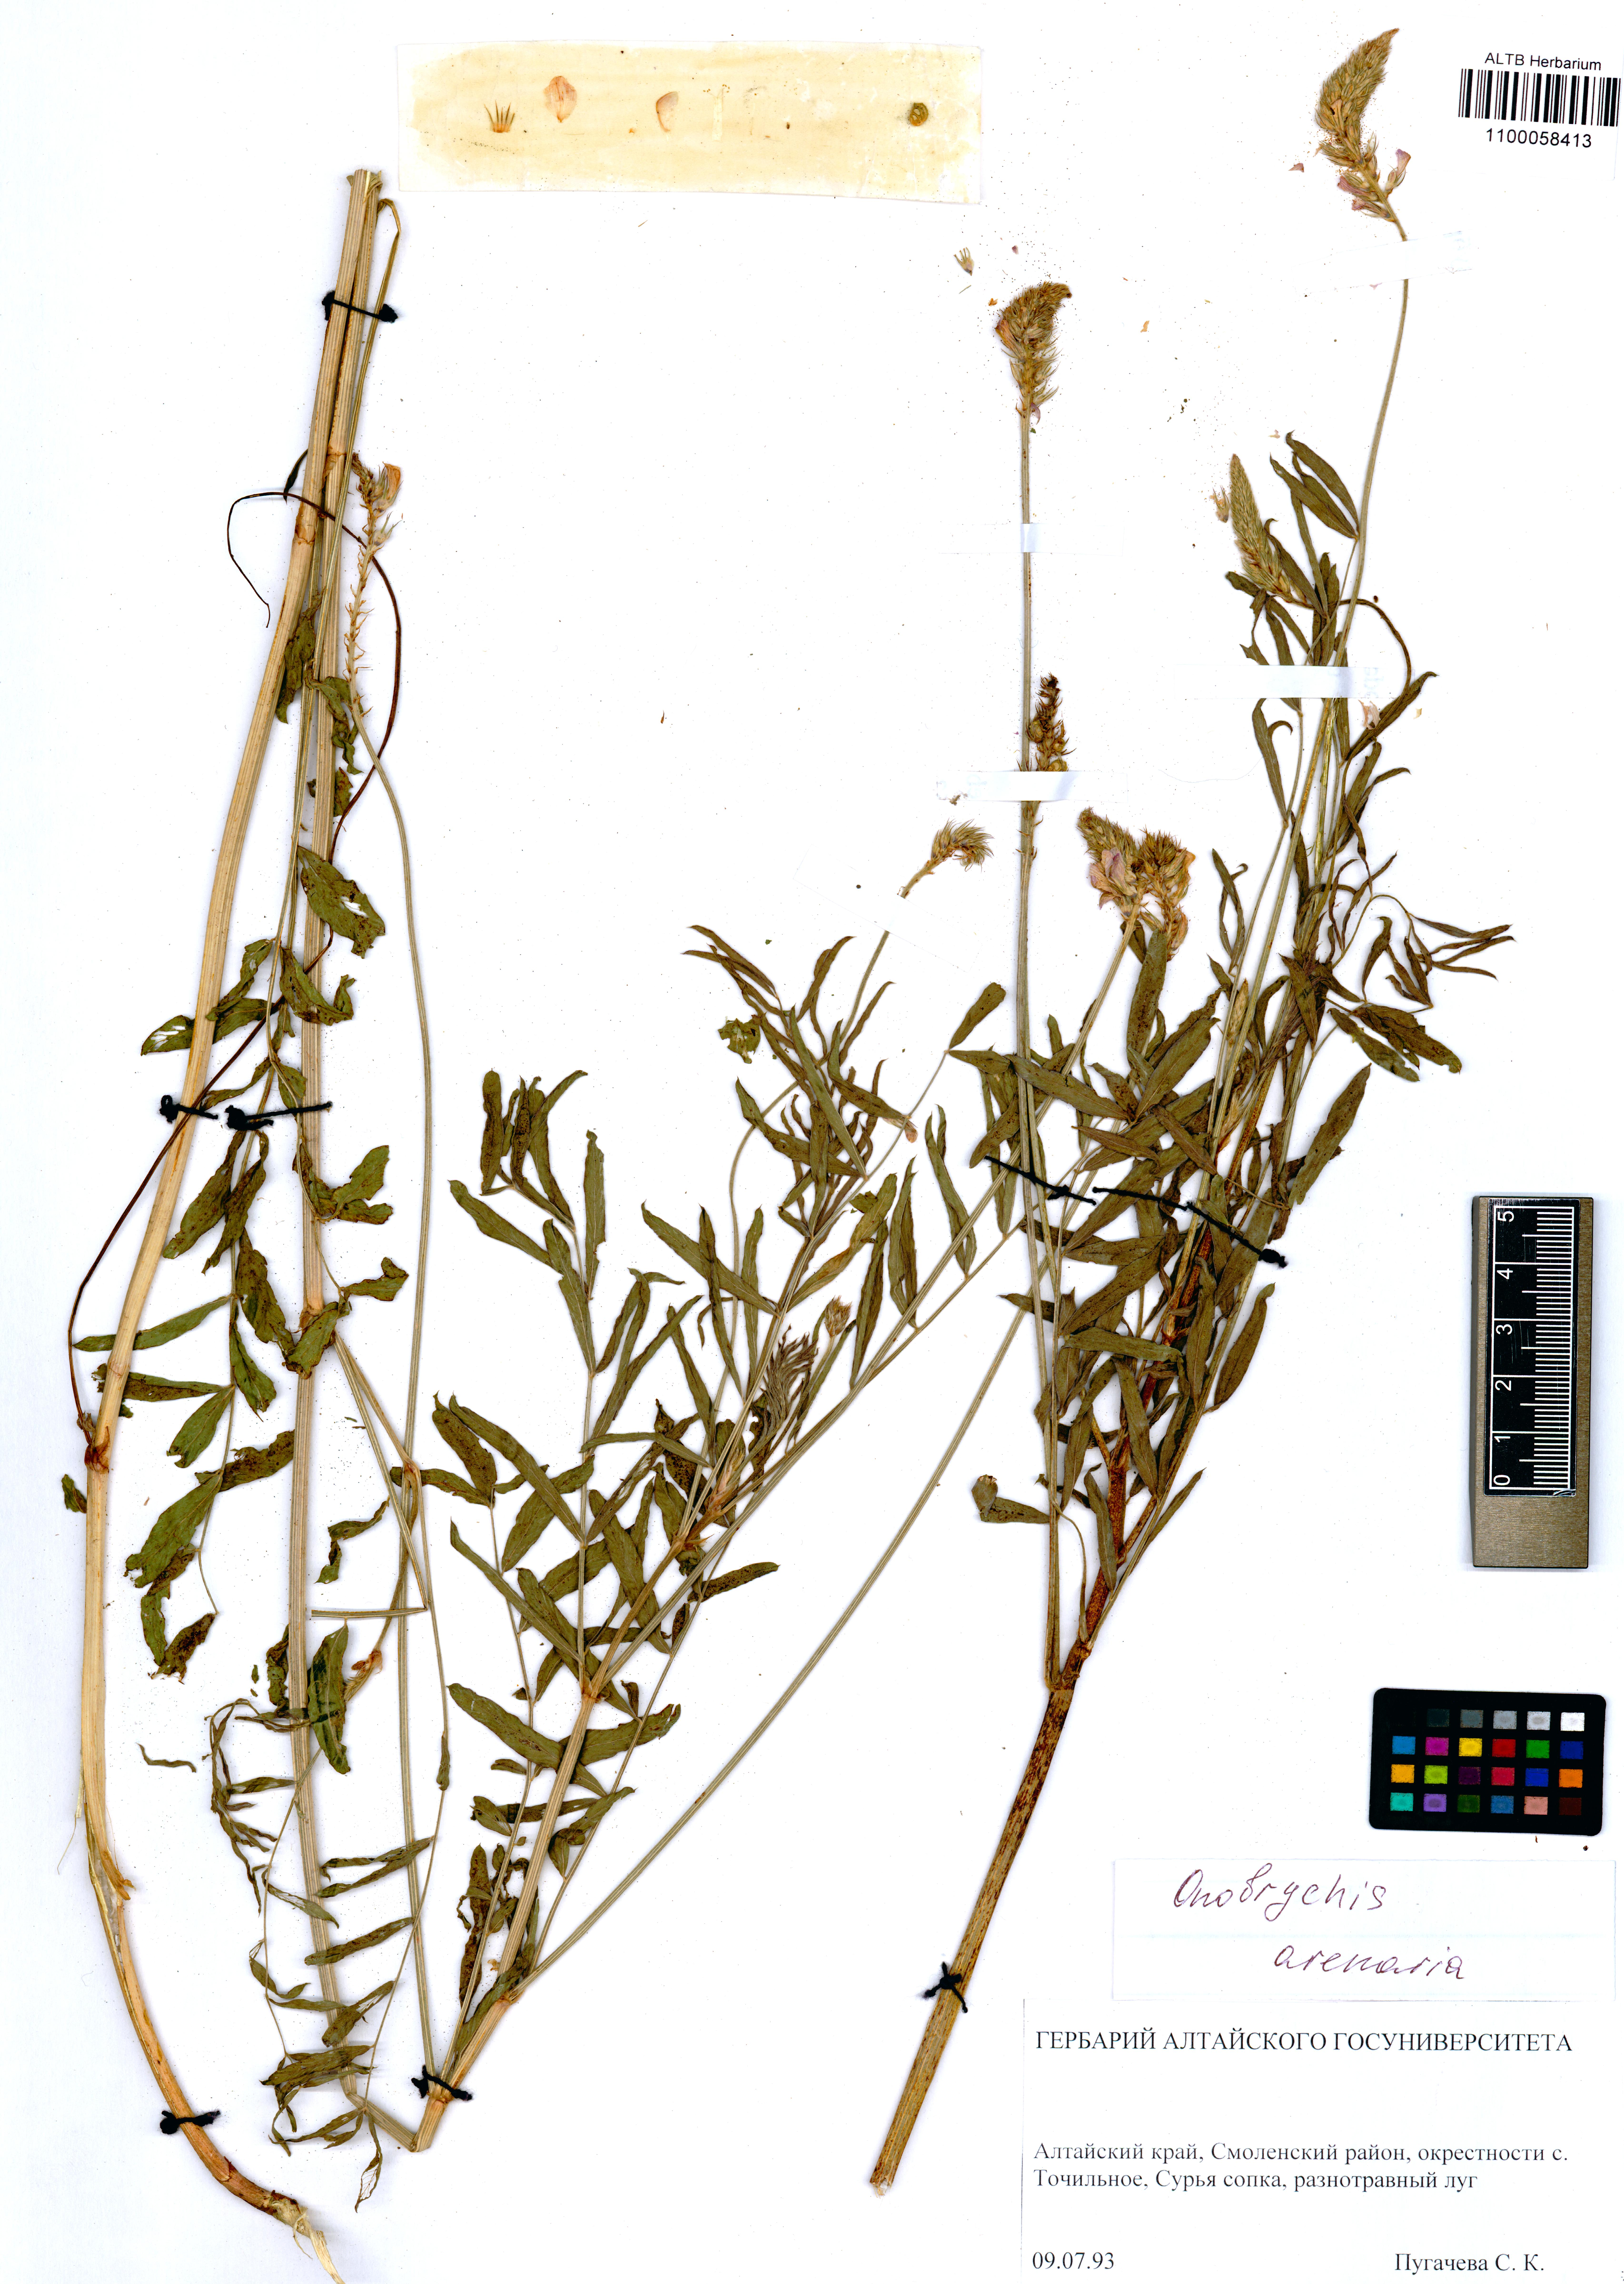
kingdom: Plantae
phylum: Tracheophyta
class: Magnoliopsida
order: Fabales
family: Fabaceae
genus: Onobrychis
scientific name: Onobrychis arenaria
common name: Sand esparcet
